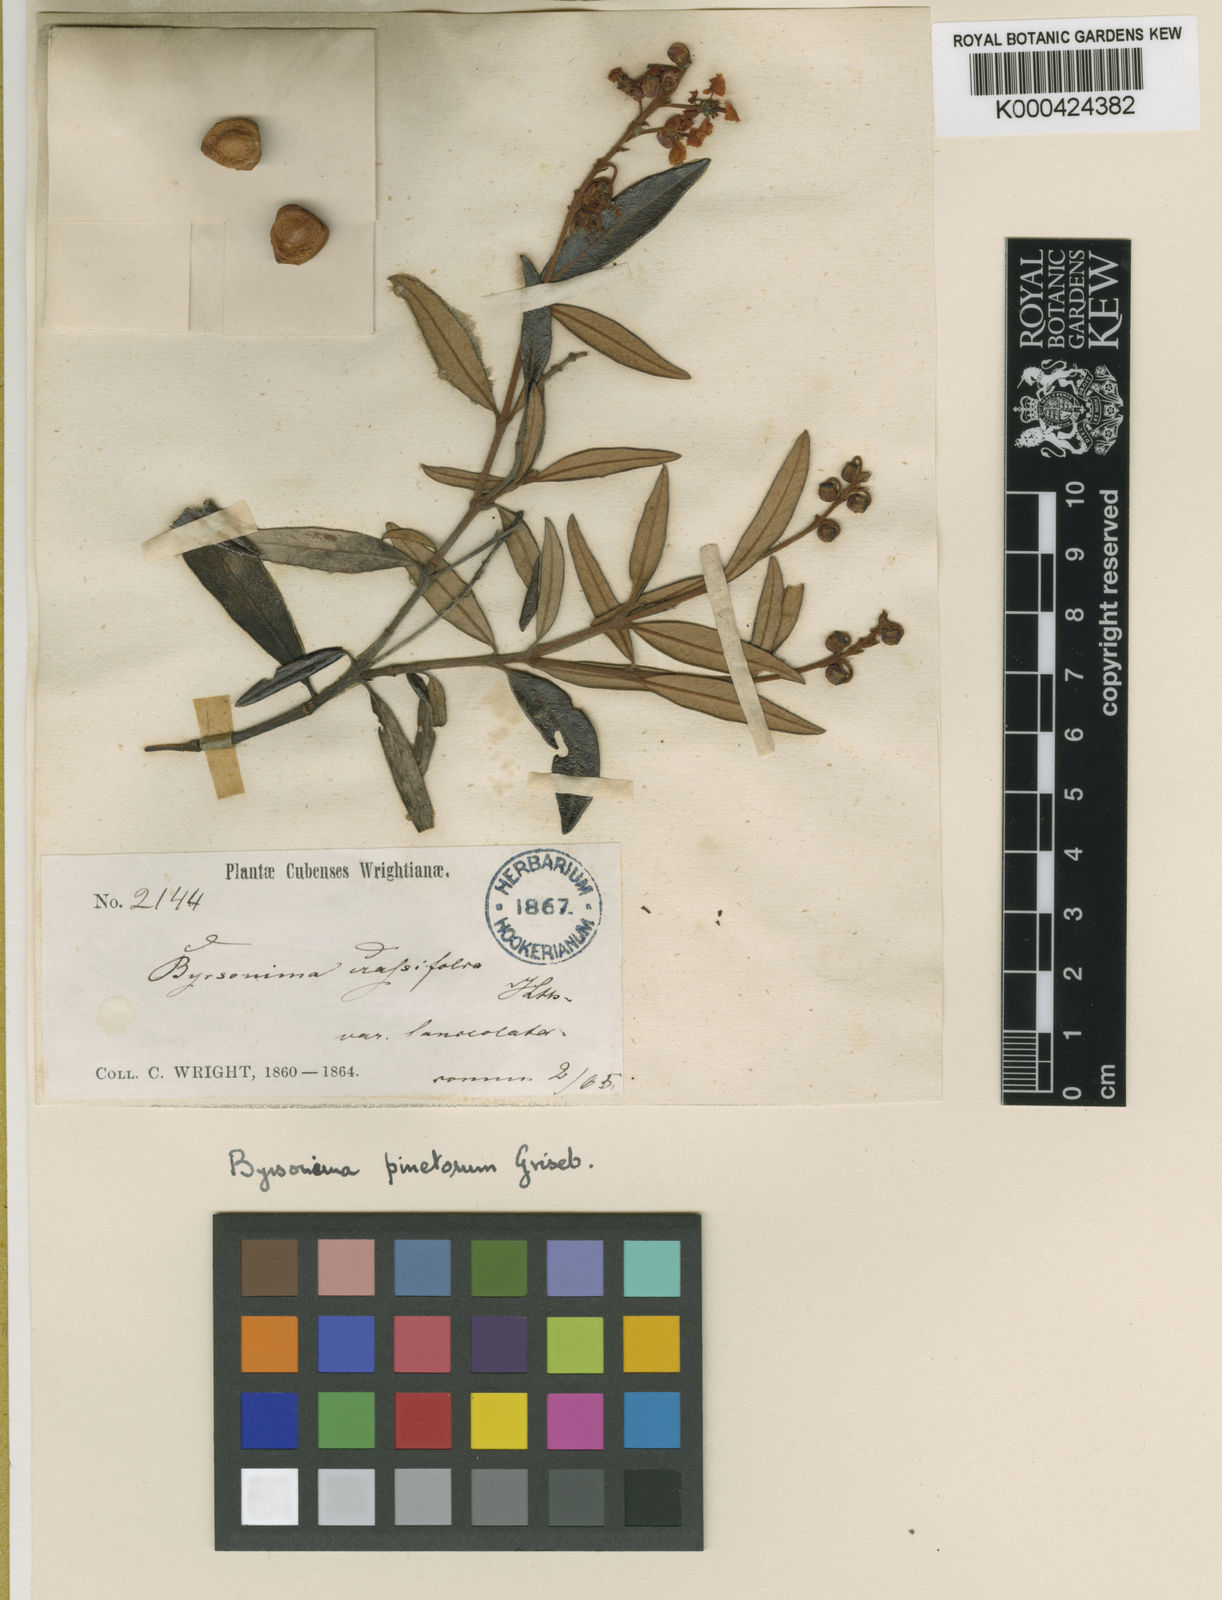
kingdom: Plantae
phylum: Tracheophyta
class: Magnoliopsida
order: Malpighiales
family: Malpighiaceae
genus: Byrsonima
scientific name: Byrsonima pinetorum
